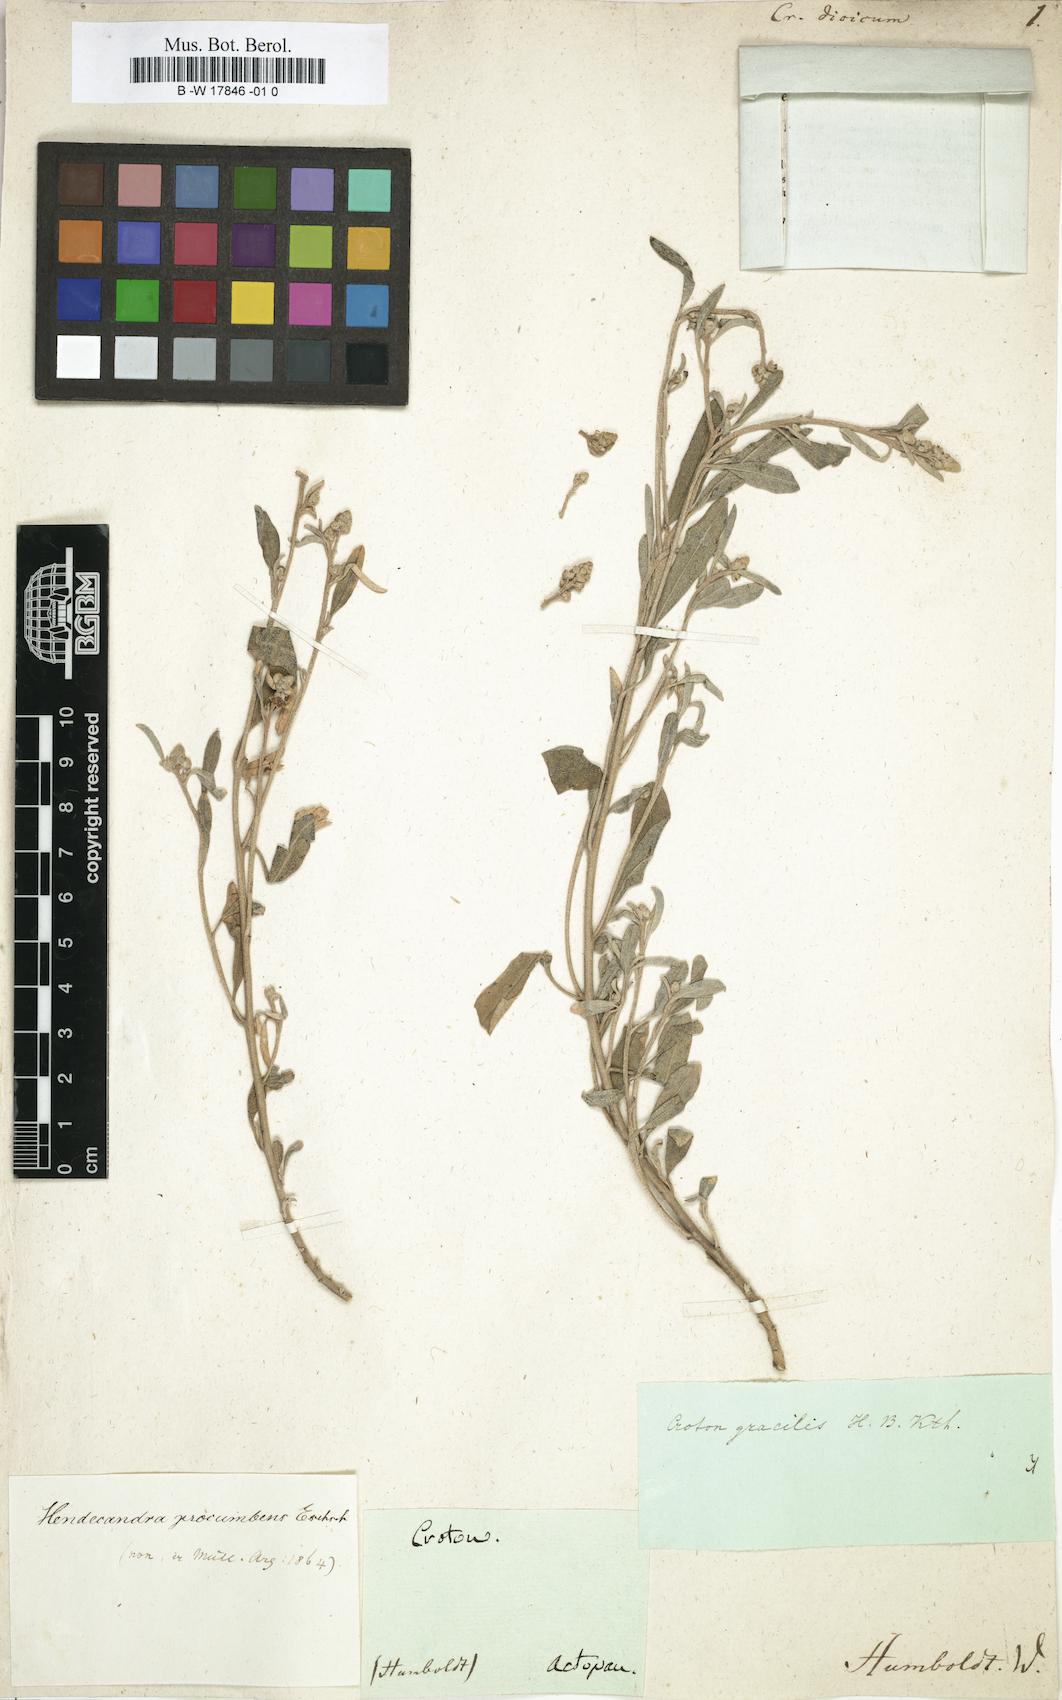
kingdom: Plantae
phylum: Tracheophyta
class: Magnoliopsida
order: Malpighiales
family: Euphorbiaceae
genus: Croton
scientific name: Croton dioicus
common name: Grassland croton
